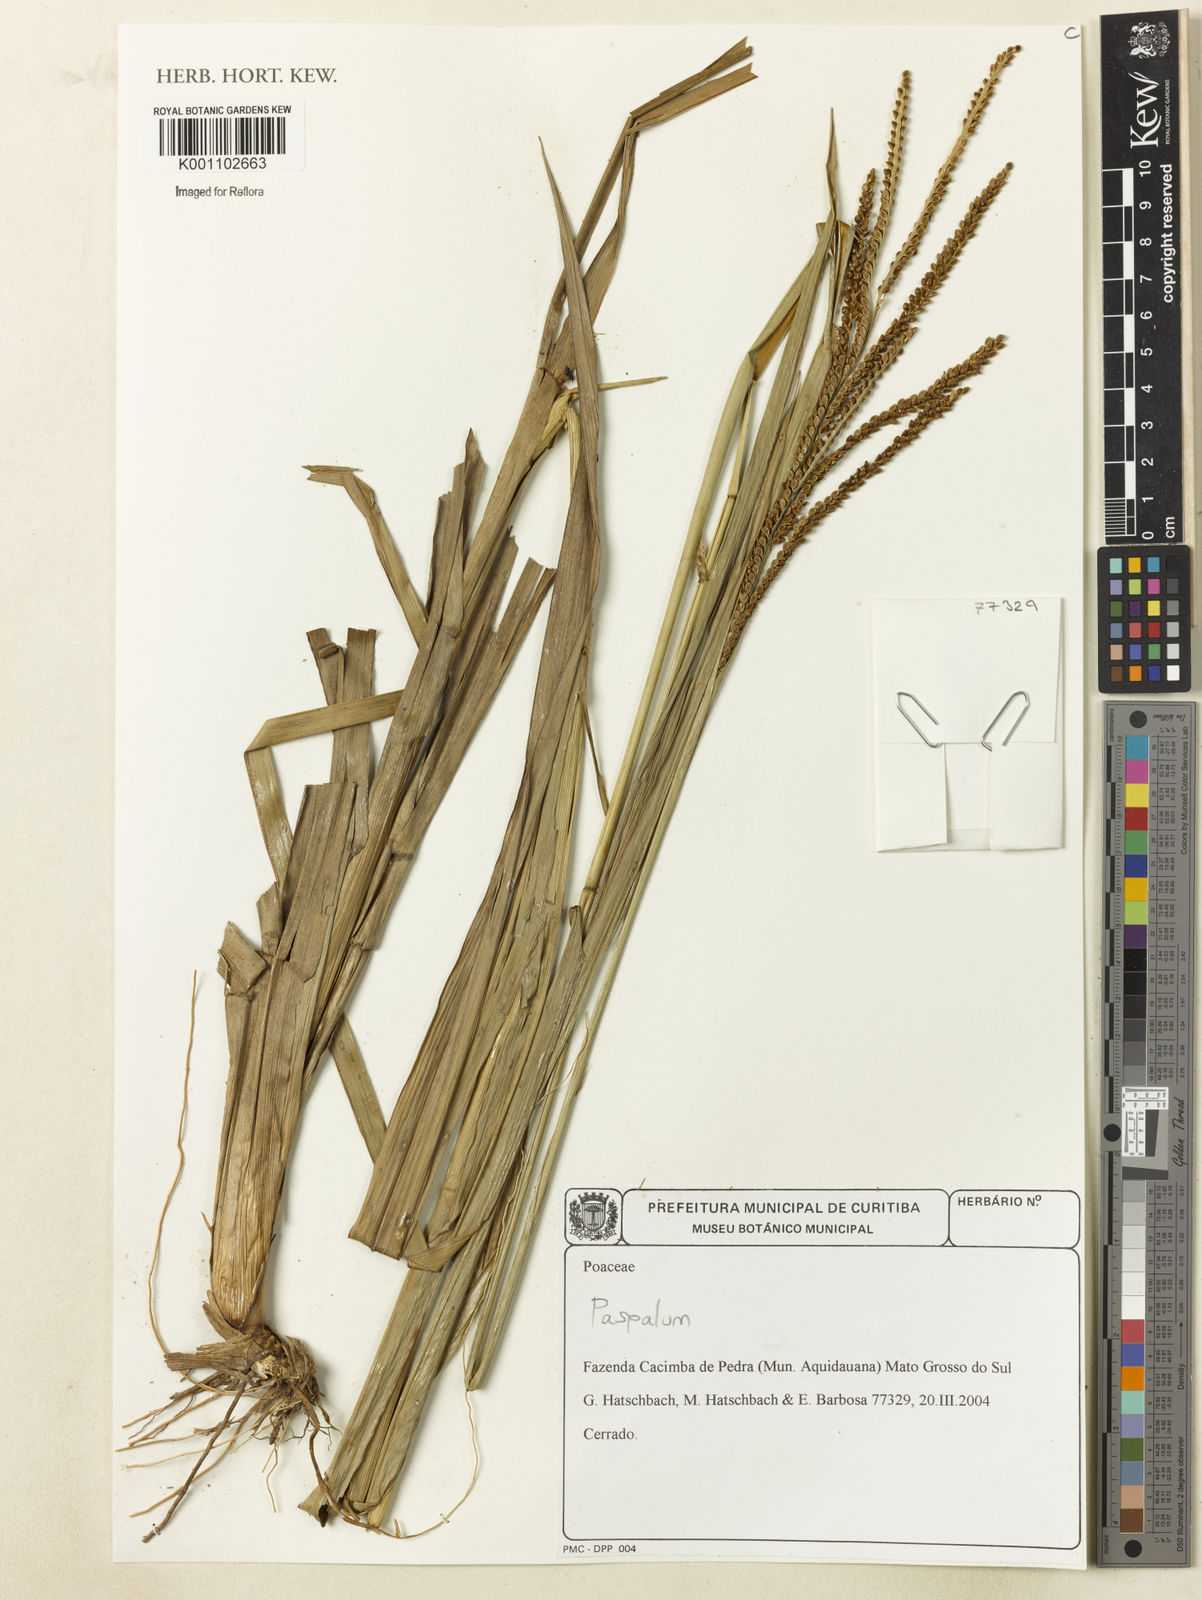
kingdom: Plantae
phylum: Tracheophyta
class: Liliopsida
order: Poales
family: Poaceae
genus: Paspalum
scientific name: Paspalum
